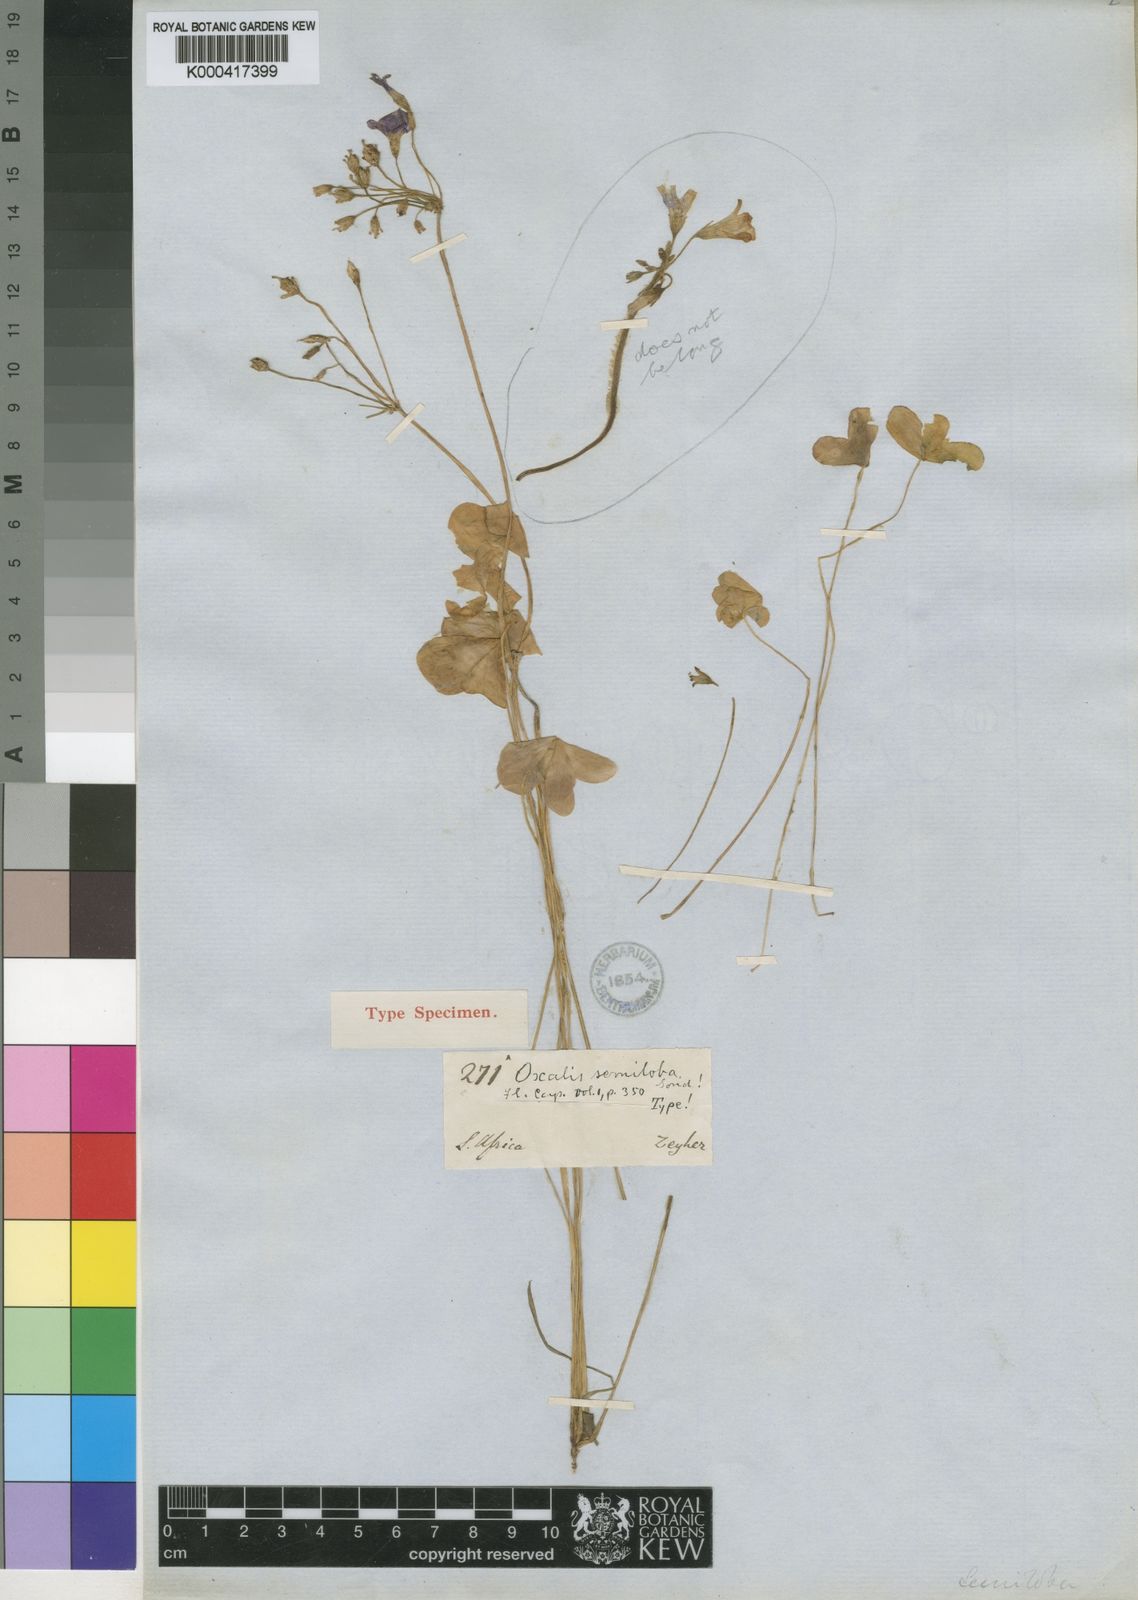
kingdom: Plantae
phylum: Tracheophyta
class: Magnoliopsida
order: Oxalidales
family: Oxalidaceae
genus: Oxalis
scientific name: Oxalis semiloba
